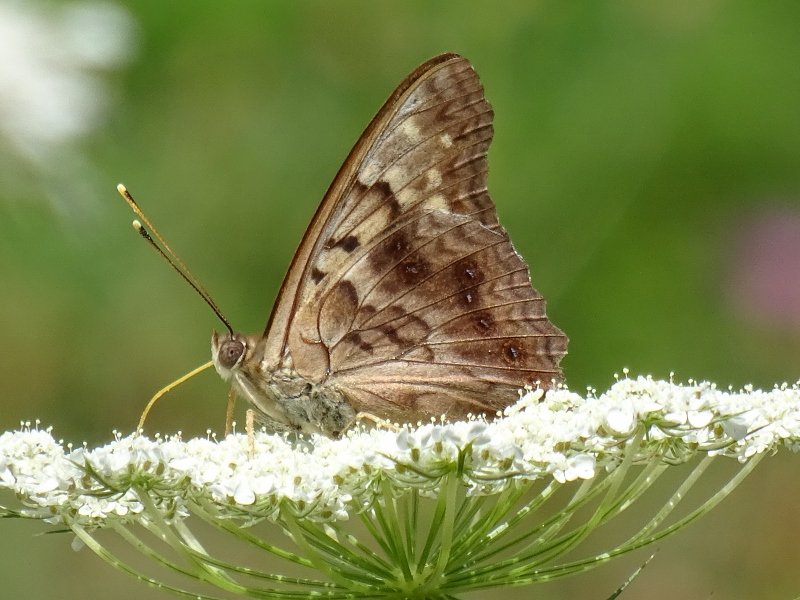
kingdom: Animalia
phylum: Arthropoda
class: Insecta
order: Lepidoptera
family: Nymphalidae
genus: Asterocampa
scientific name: Asterocampa clyton
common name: Tawny Emperor
